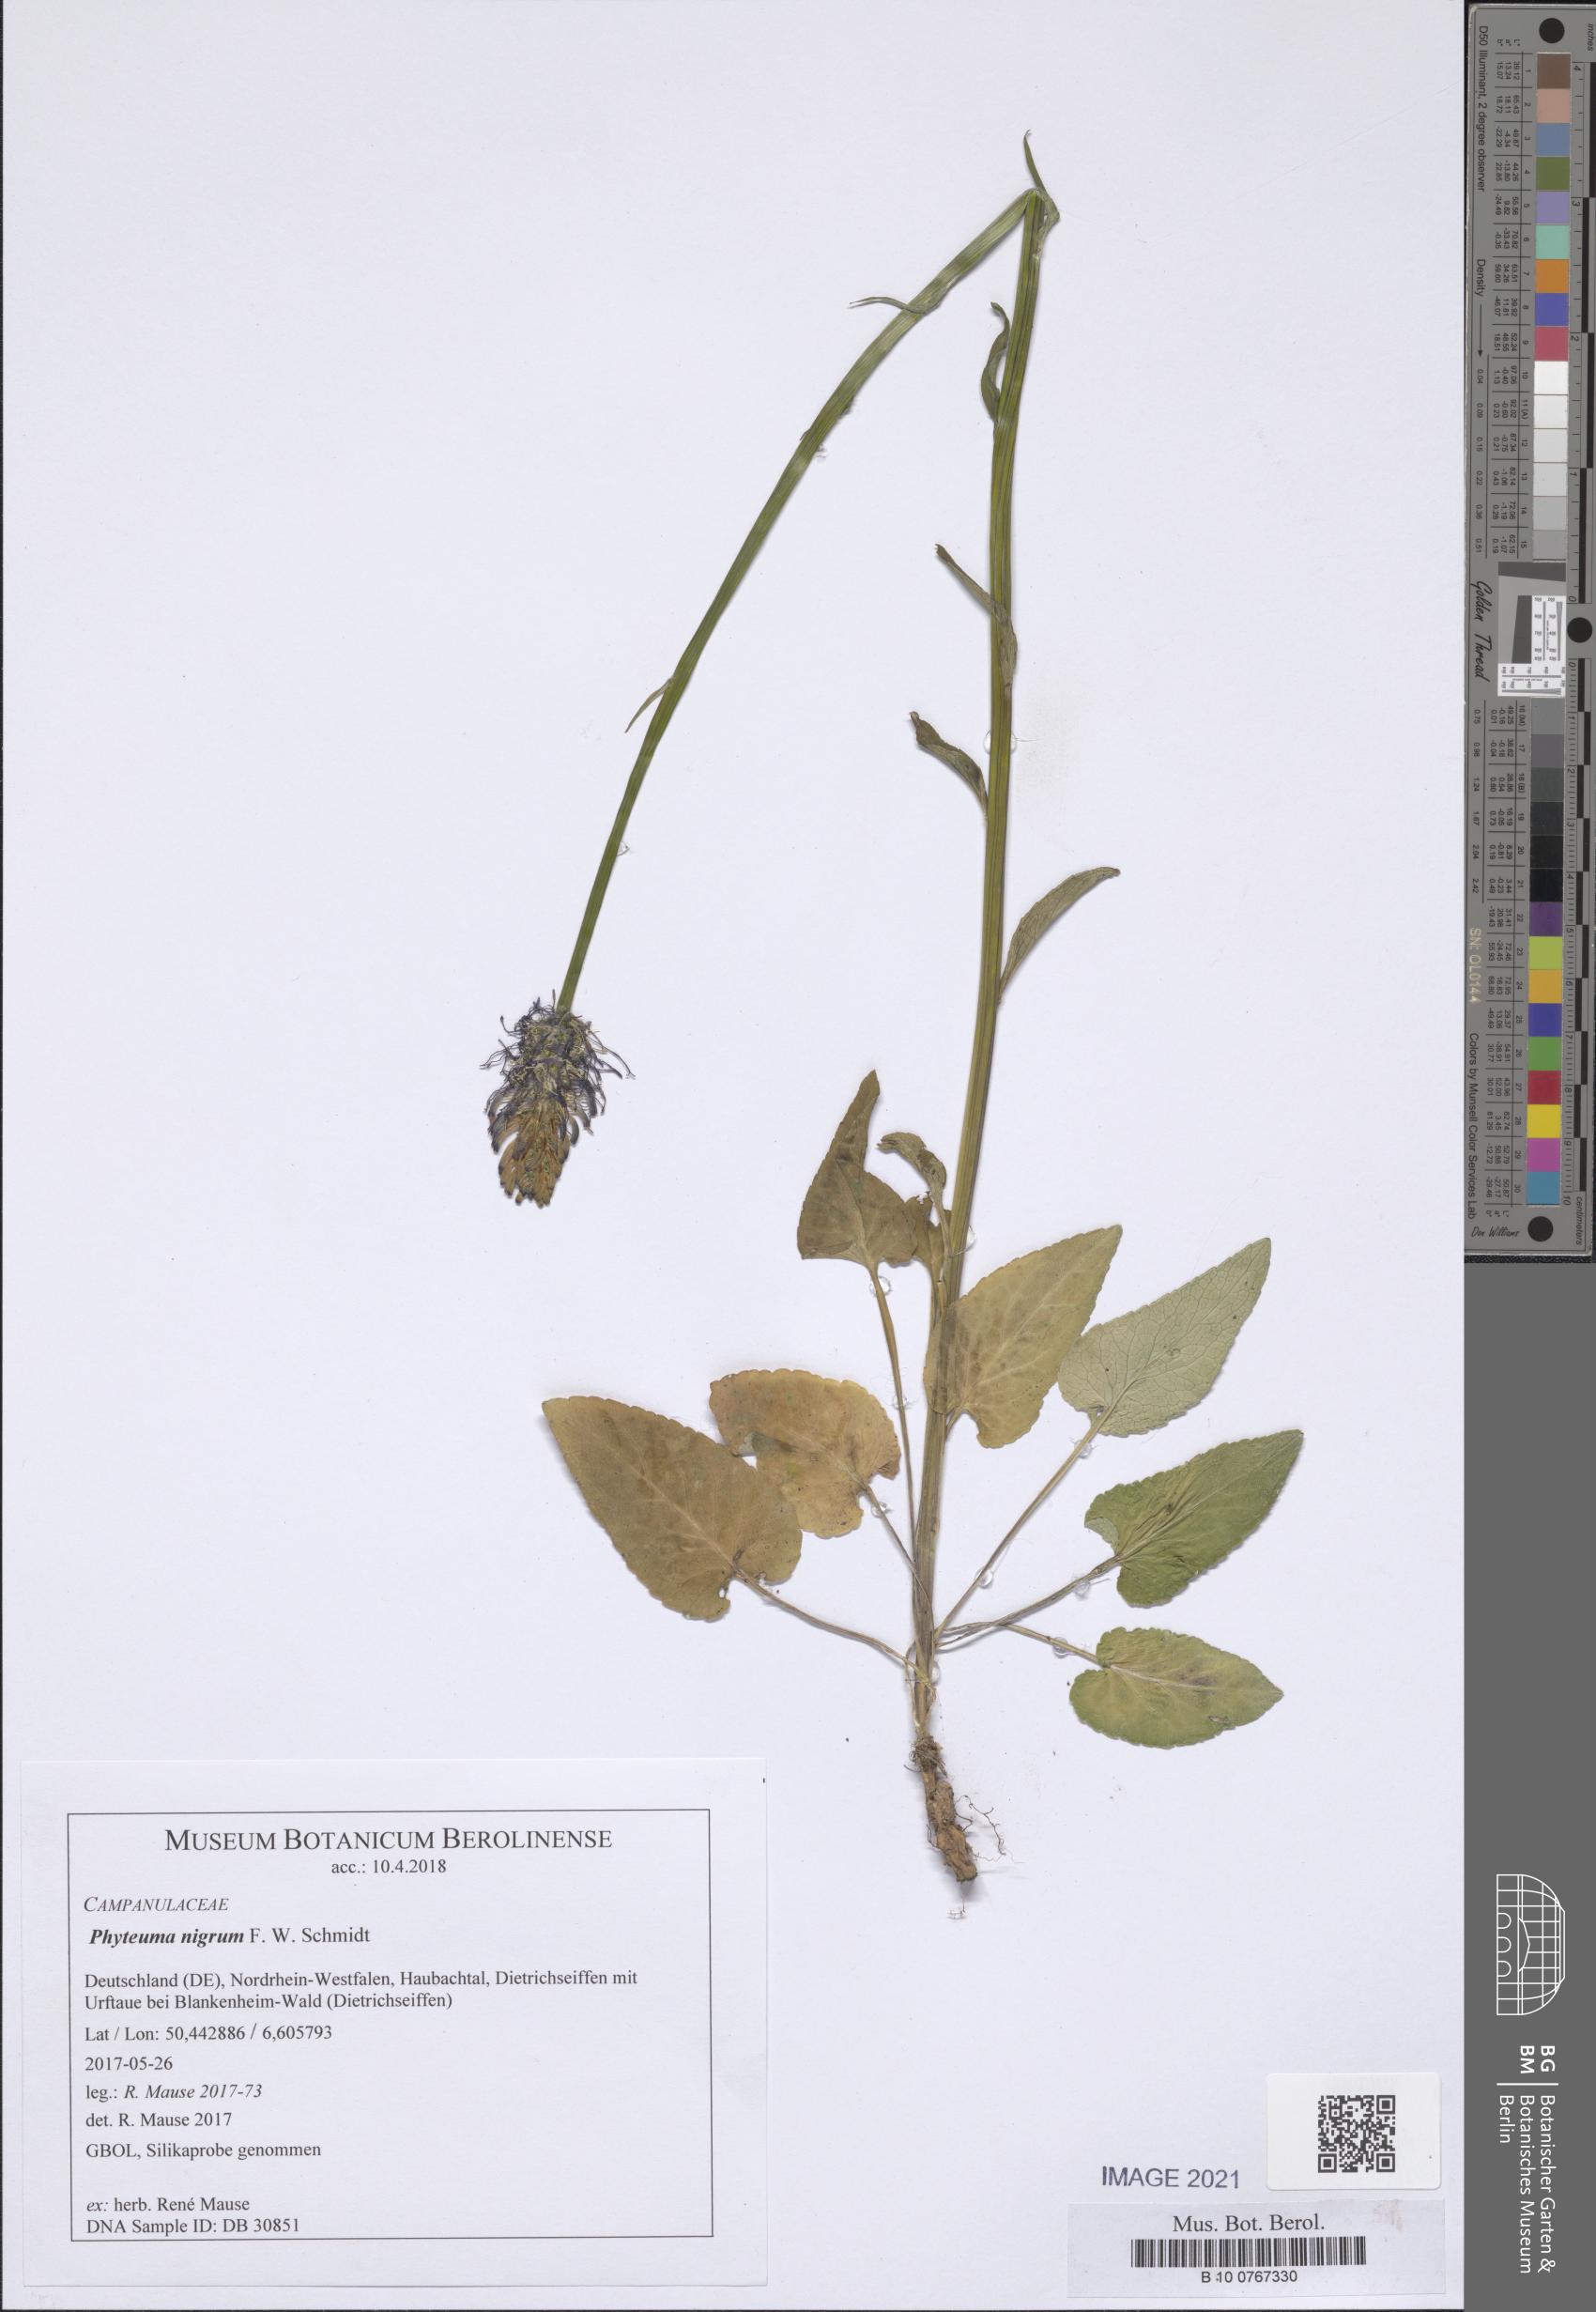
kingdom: Plantae
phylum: Tracheophyta
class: Magnoliopsida
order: Asterales
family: Campanulaceae
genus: Phyteuma
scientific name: Phyteuma nigrum
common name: Black rampion
